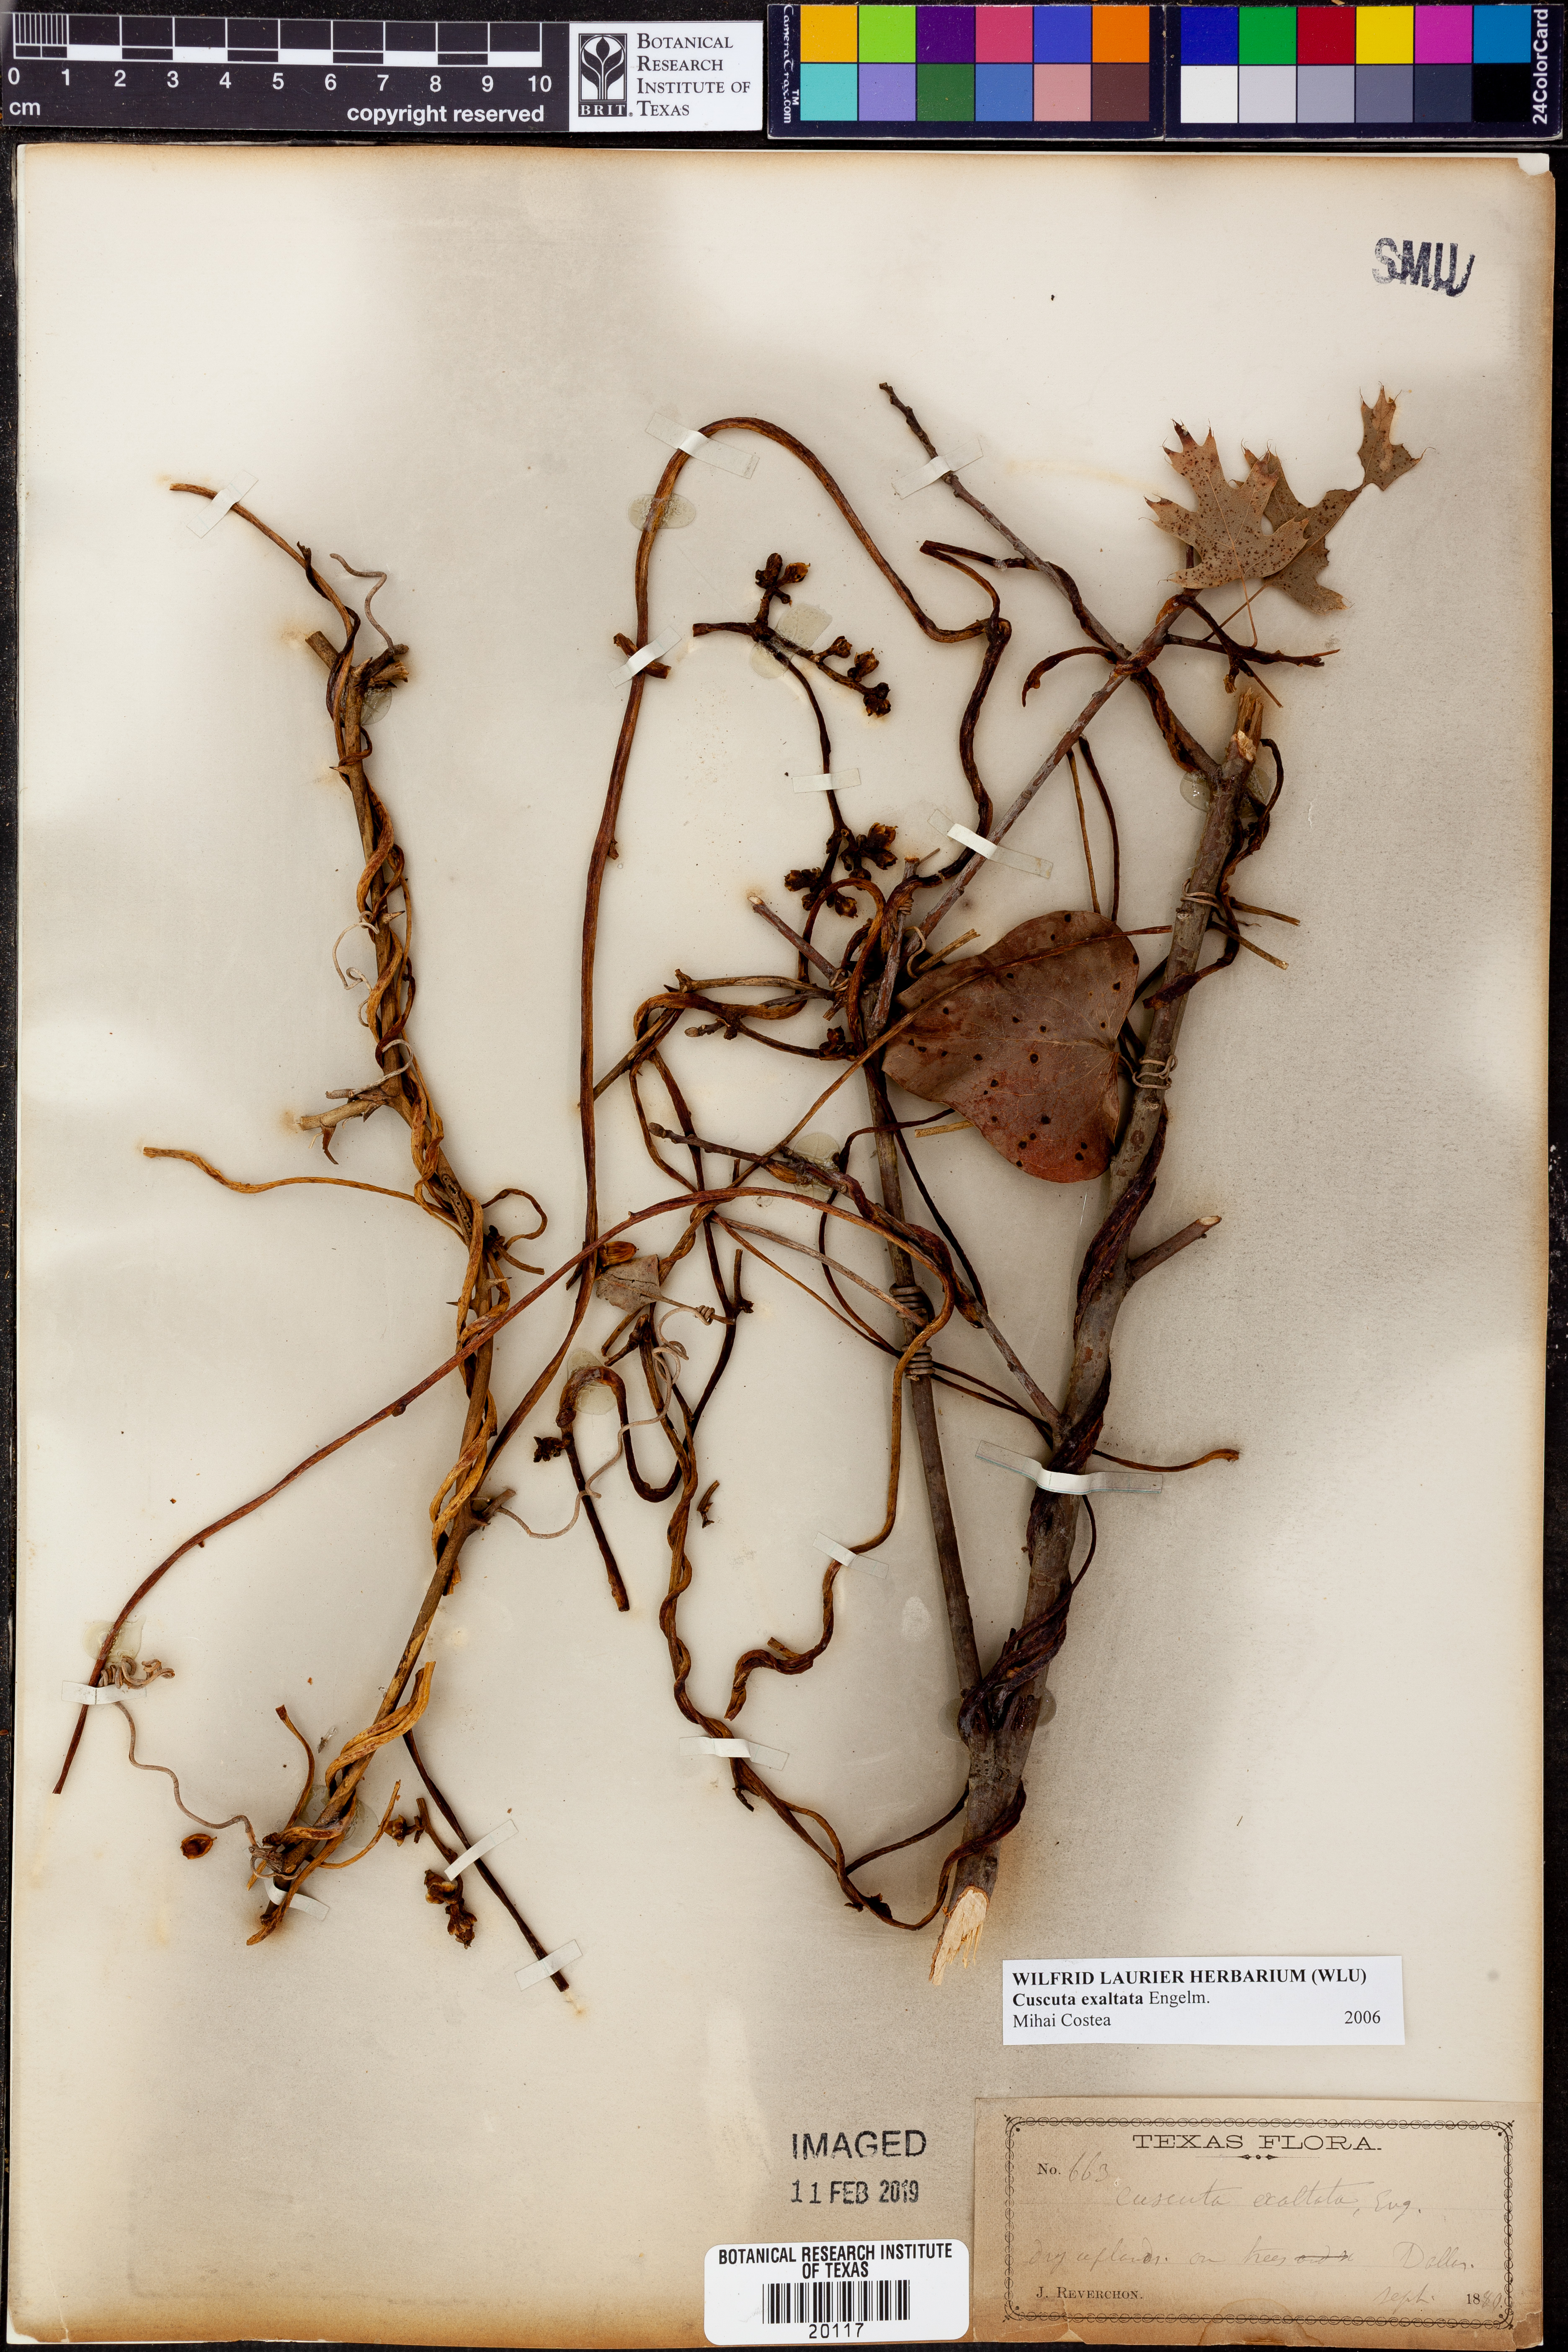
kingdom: Plantae
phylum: Tracheophyta
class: Magnoliopsida
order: Solanales
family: Convolvulaceae
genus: Cuscuta
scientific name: Cuscuta exaltata
